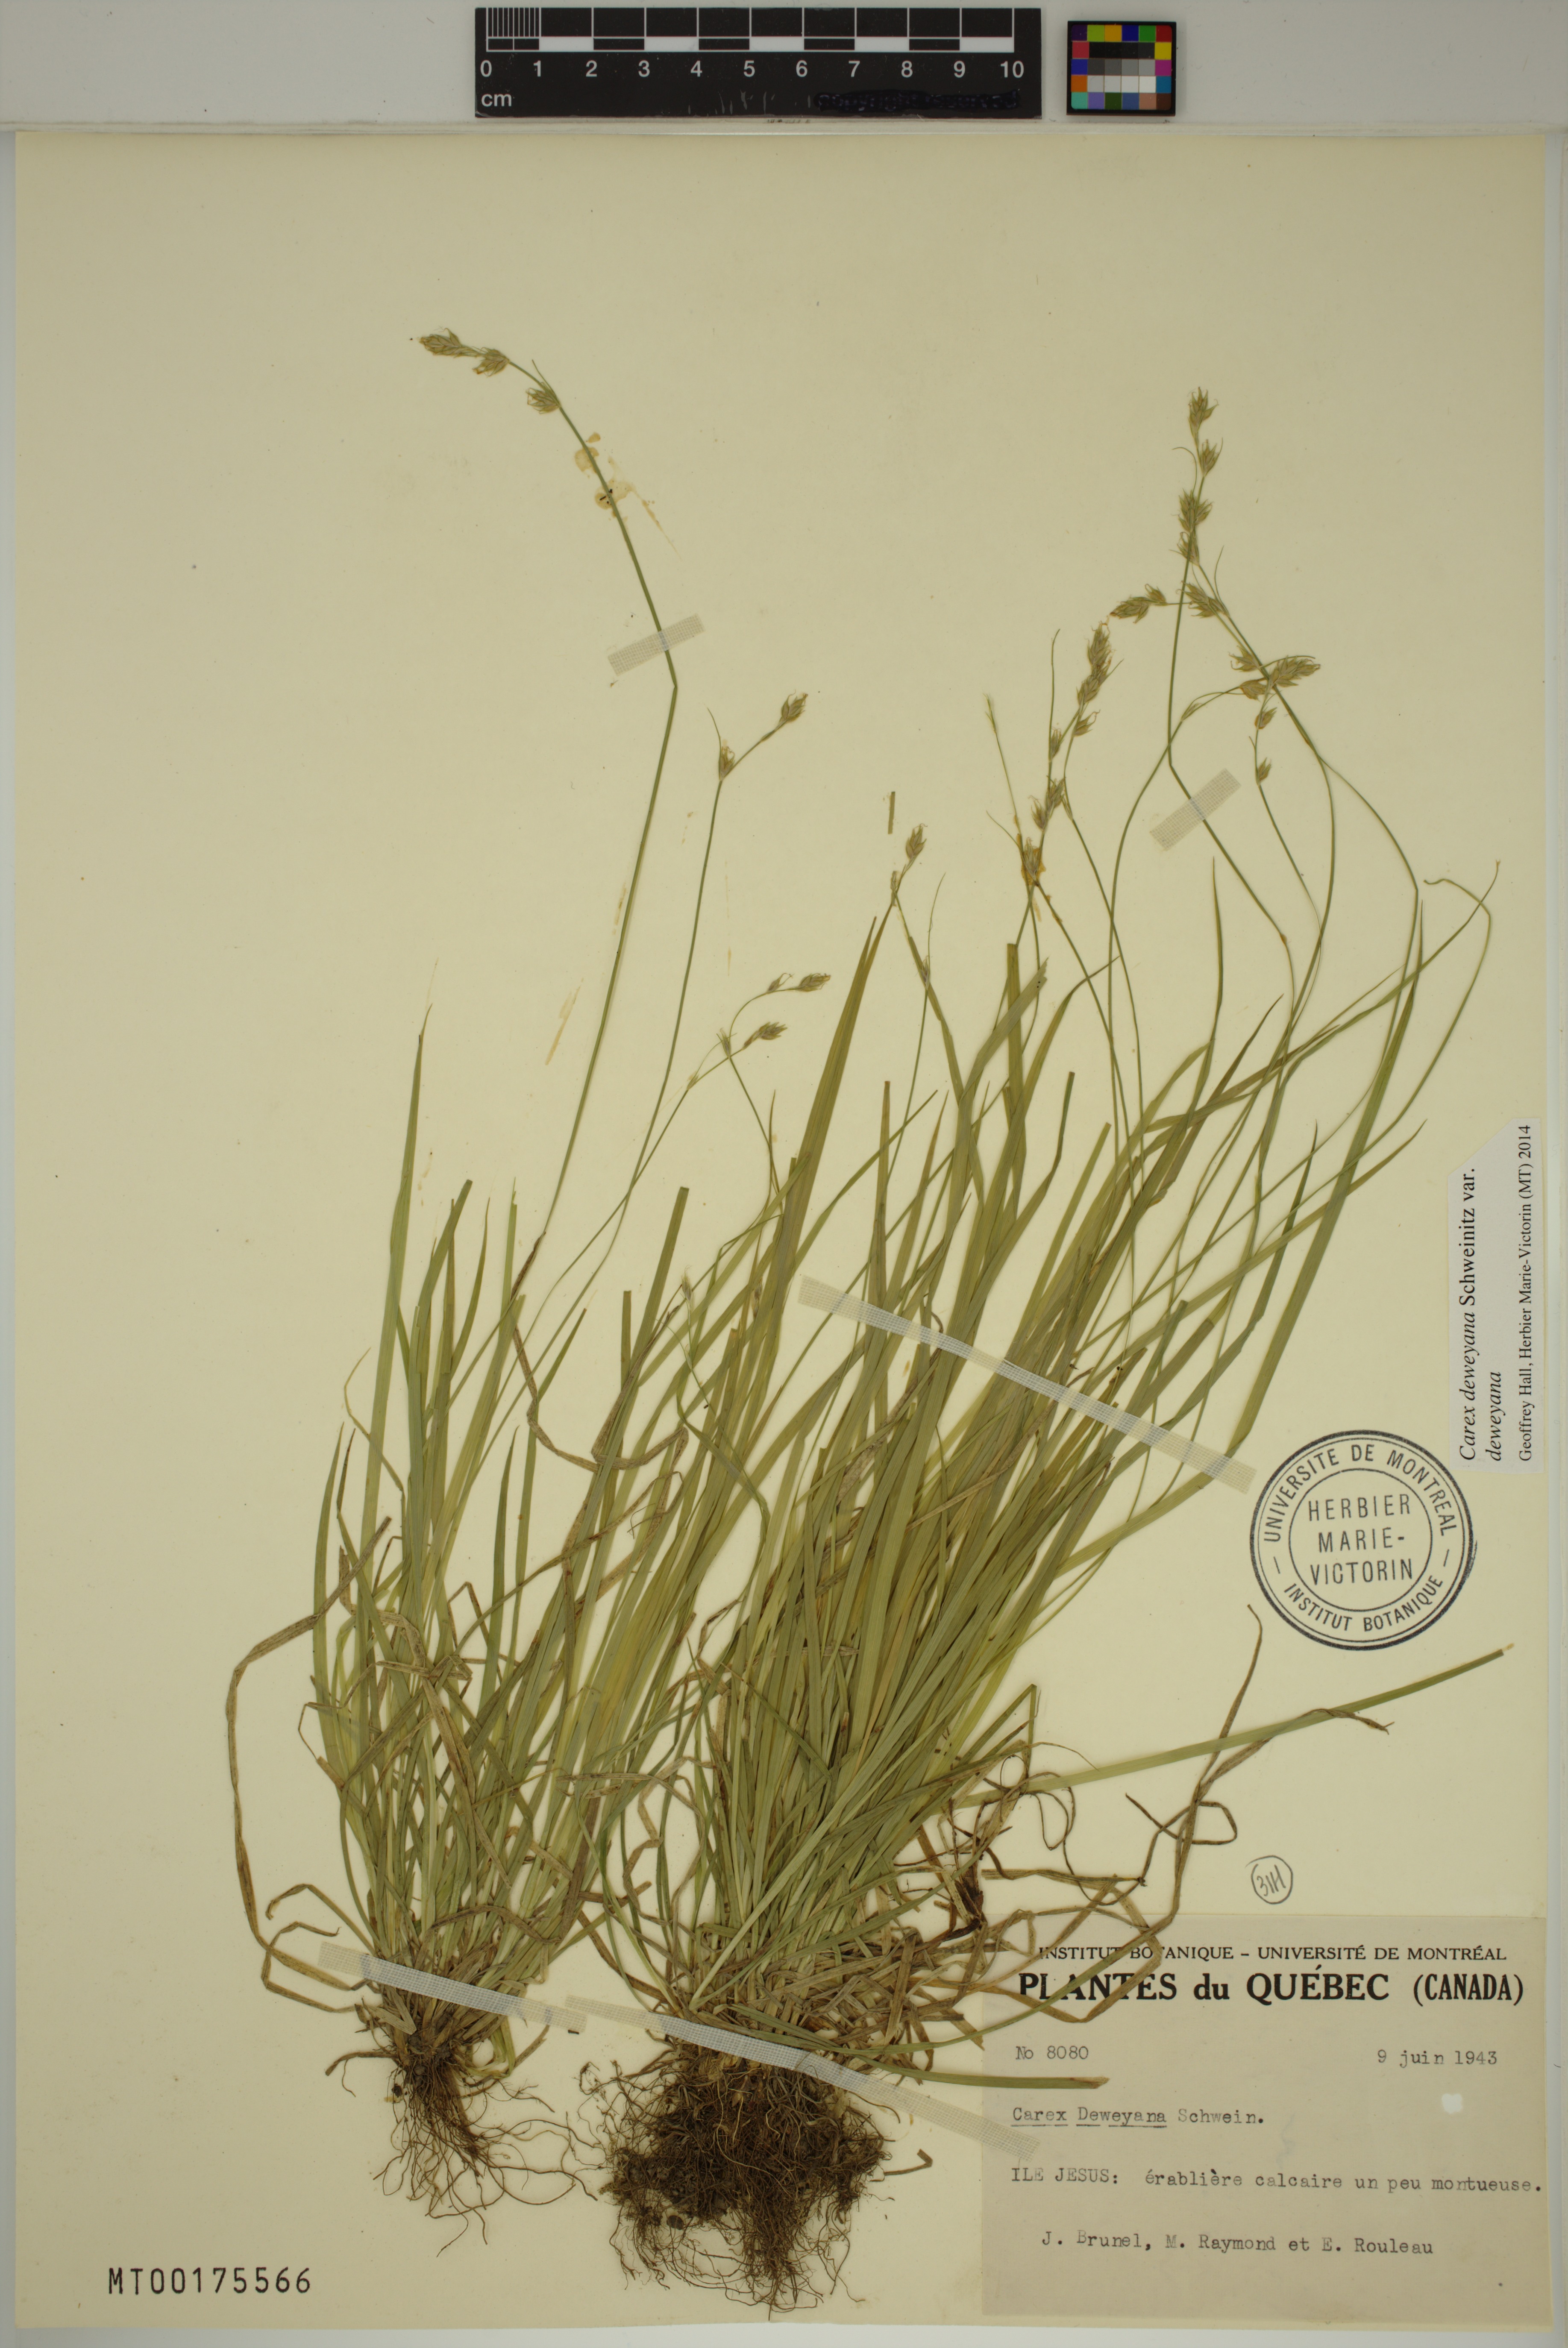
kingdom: Plantae
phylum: Tracheophyta
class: Liliopsida
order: Poales
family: Cyperaceae
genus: Carex
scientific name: Carex deweyana
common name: Dewey's sedge
